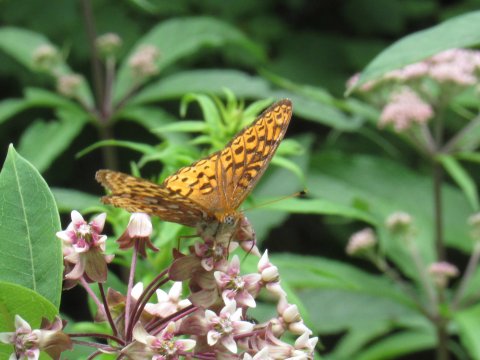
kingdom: Animalia
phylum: Arthropoda
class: Insecta
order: Lepidoptera
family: Nymphalidae
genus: Speyeria
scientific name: Speyeria atlantis
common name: Atlantis Fritillary
